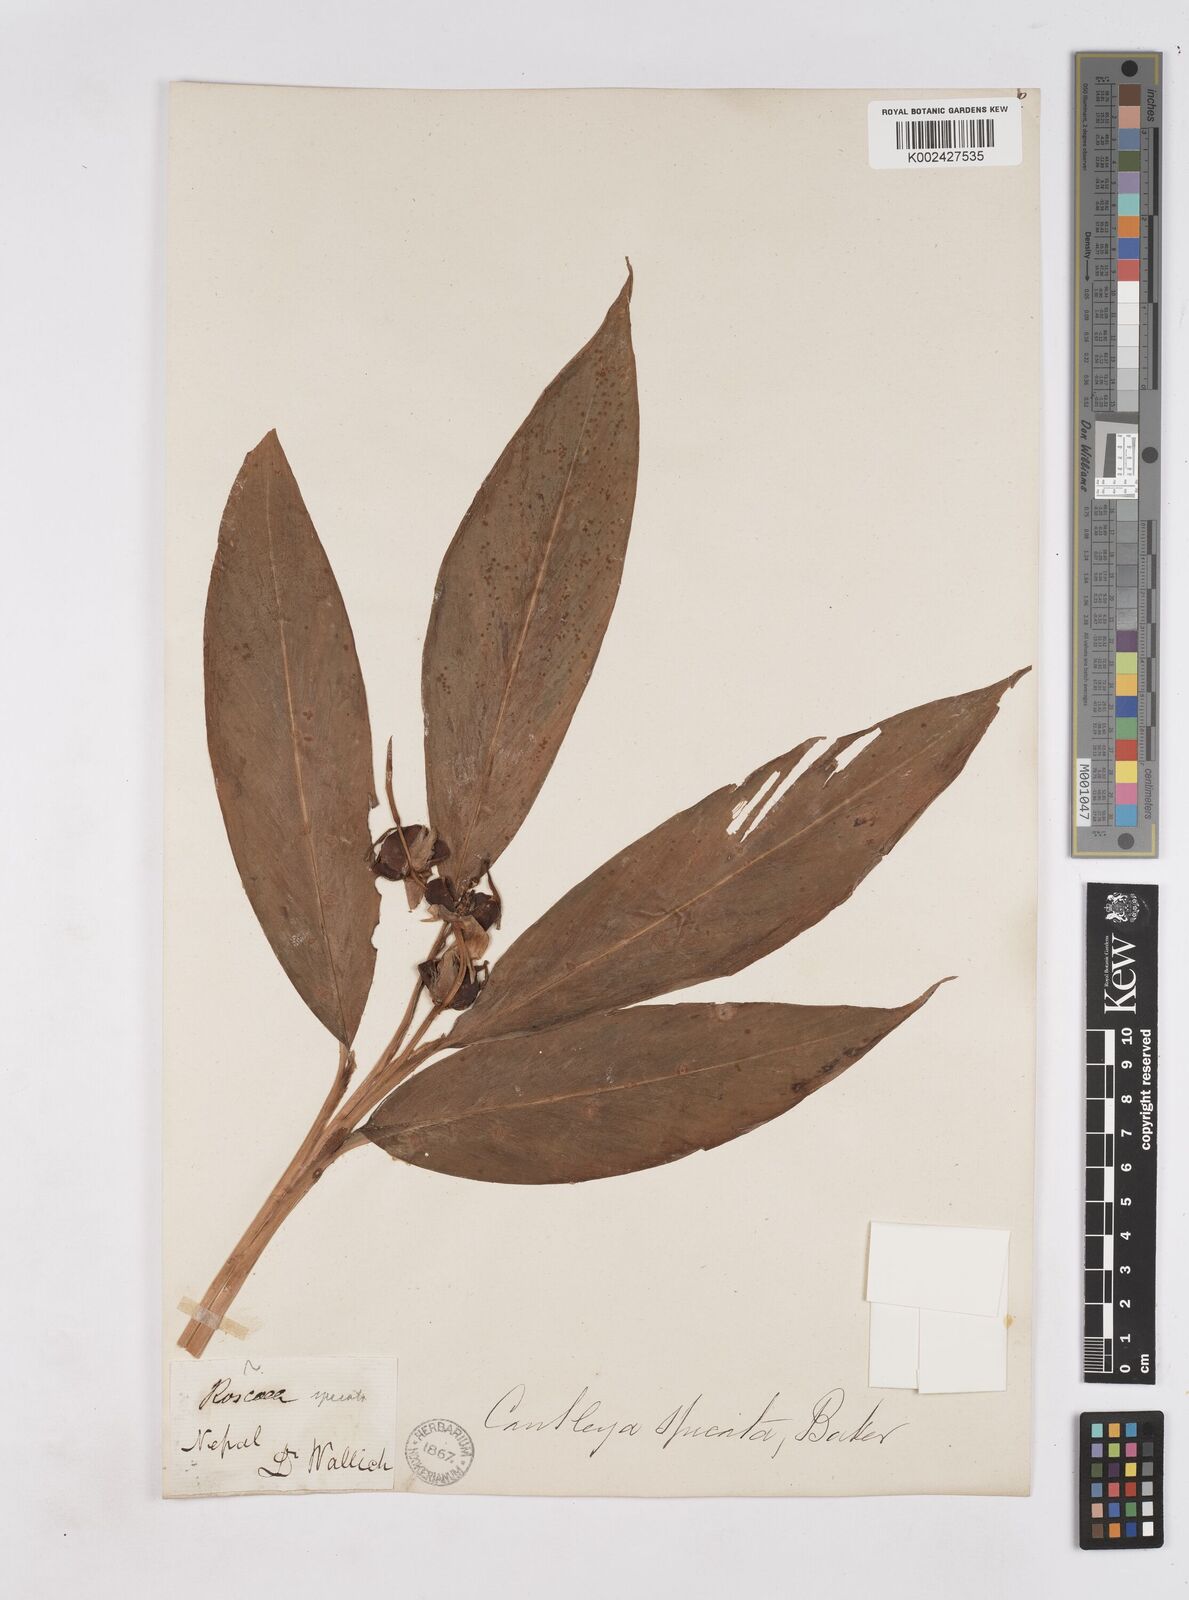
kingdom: Plantae
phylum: Tracheophyta
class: Liliopsida
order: Zingiberales
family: Zingiberaceae
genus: Cautleya
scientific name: Cautleya spicata
